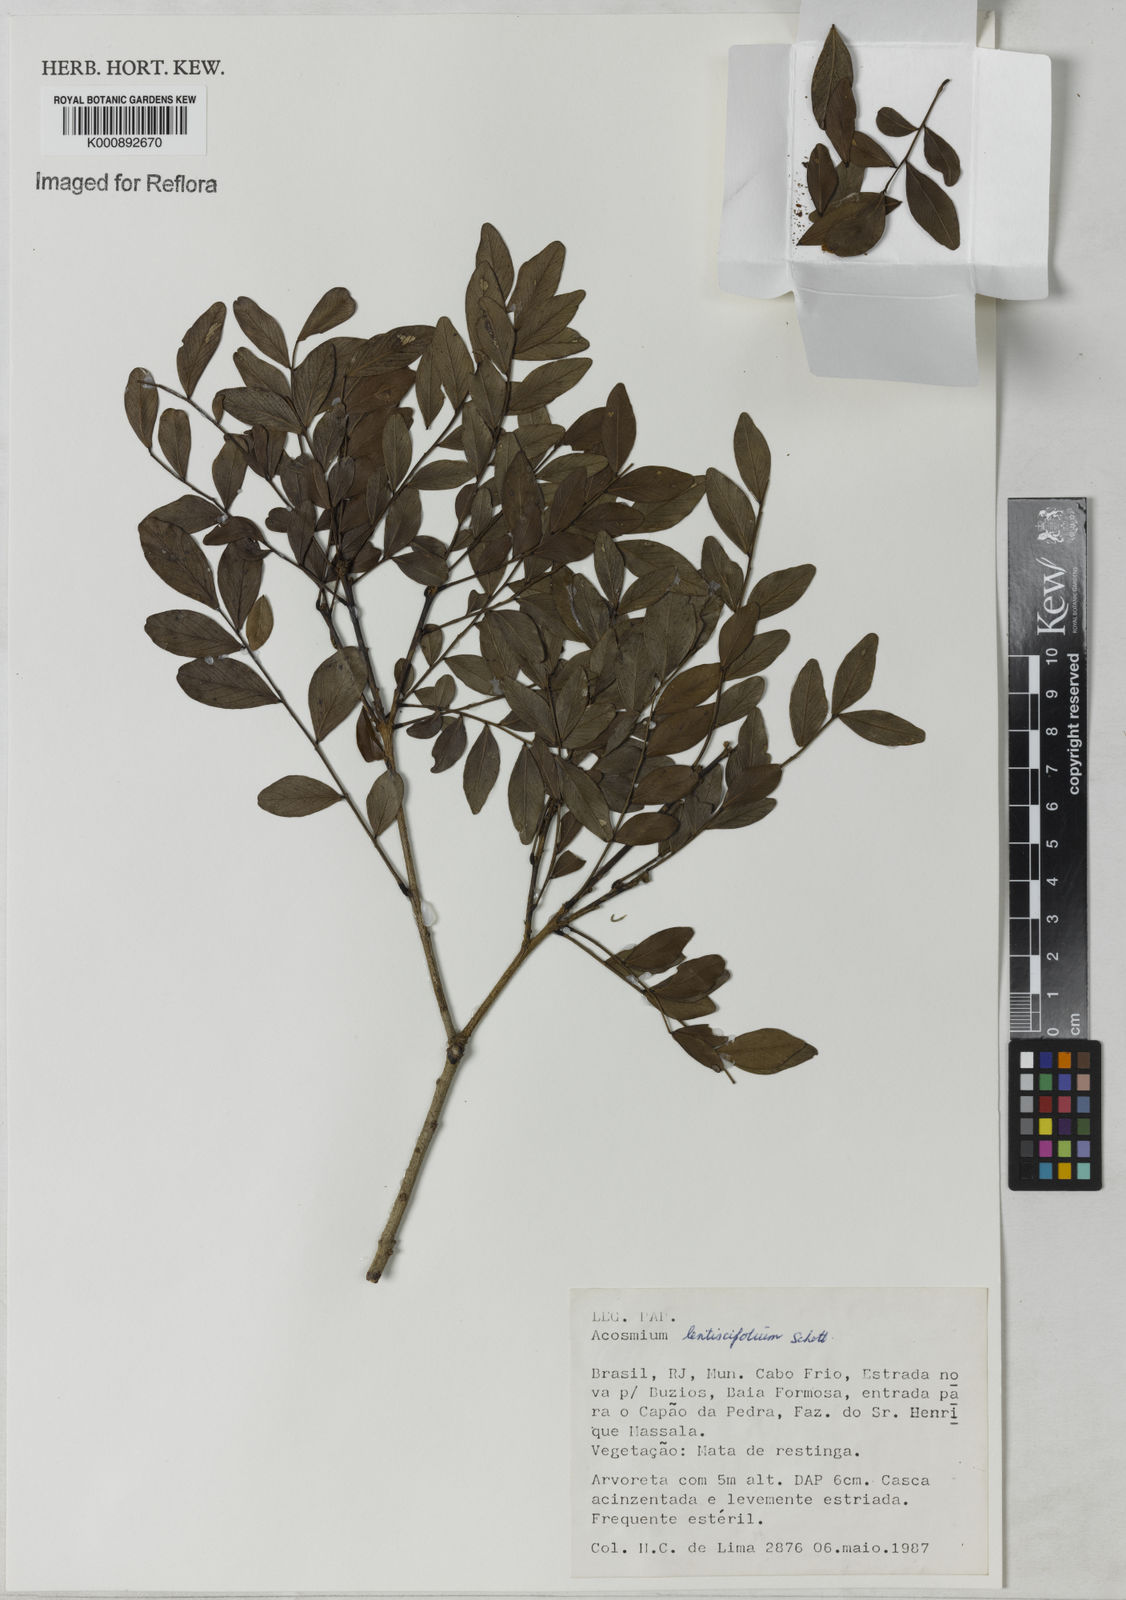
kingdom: Plantae
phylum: Tracheophyta
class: Magnoliopsida
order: Fabales
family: Fabaceae
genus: Acosmium
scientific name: Acosmium lentiscifolium
